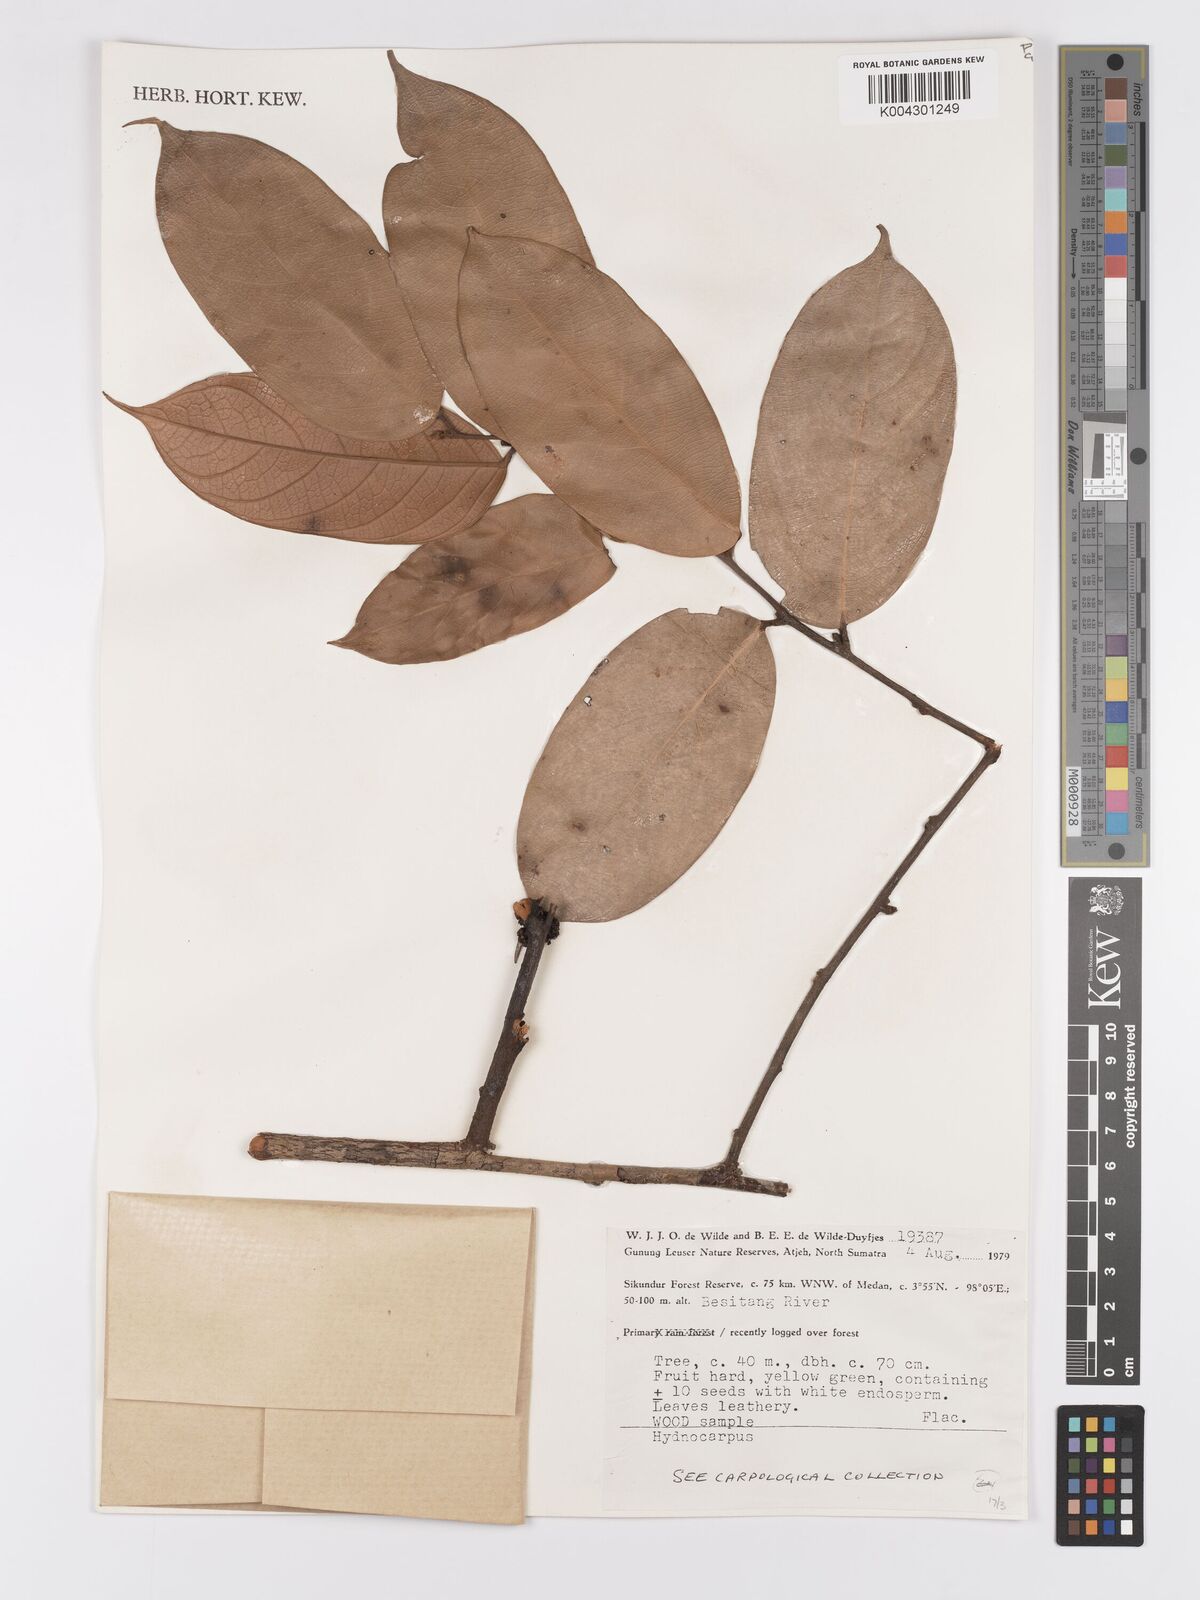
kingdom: Plantae
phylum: Tracheophyta
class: Magnoliopsida
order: Malpighiales
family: Achariaceae
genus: Hydnocarpus
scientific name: Hydnocarpus
